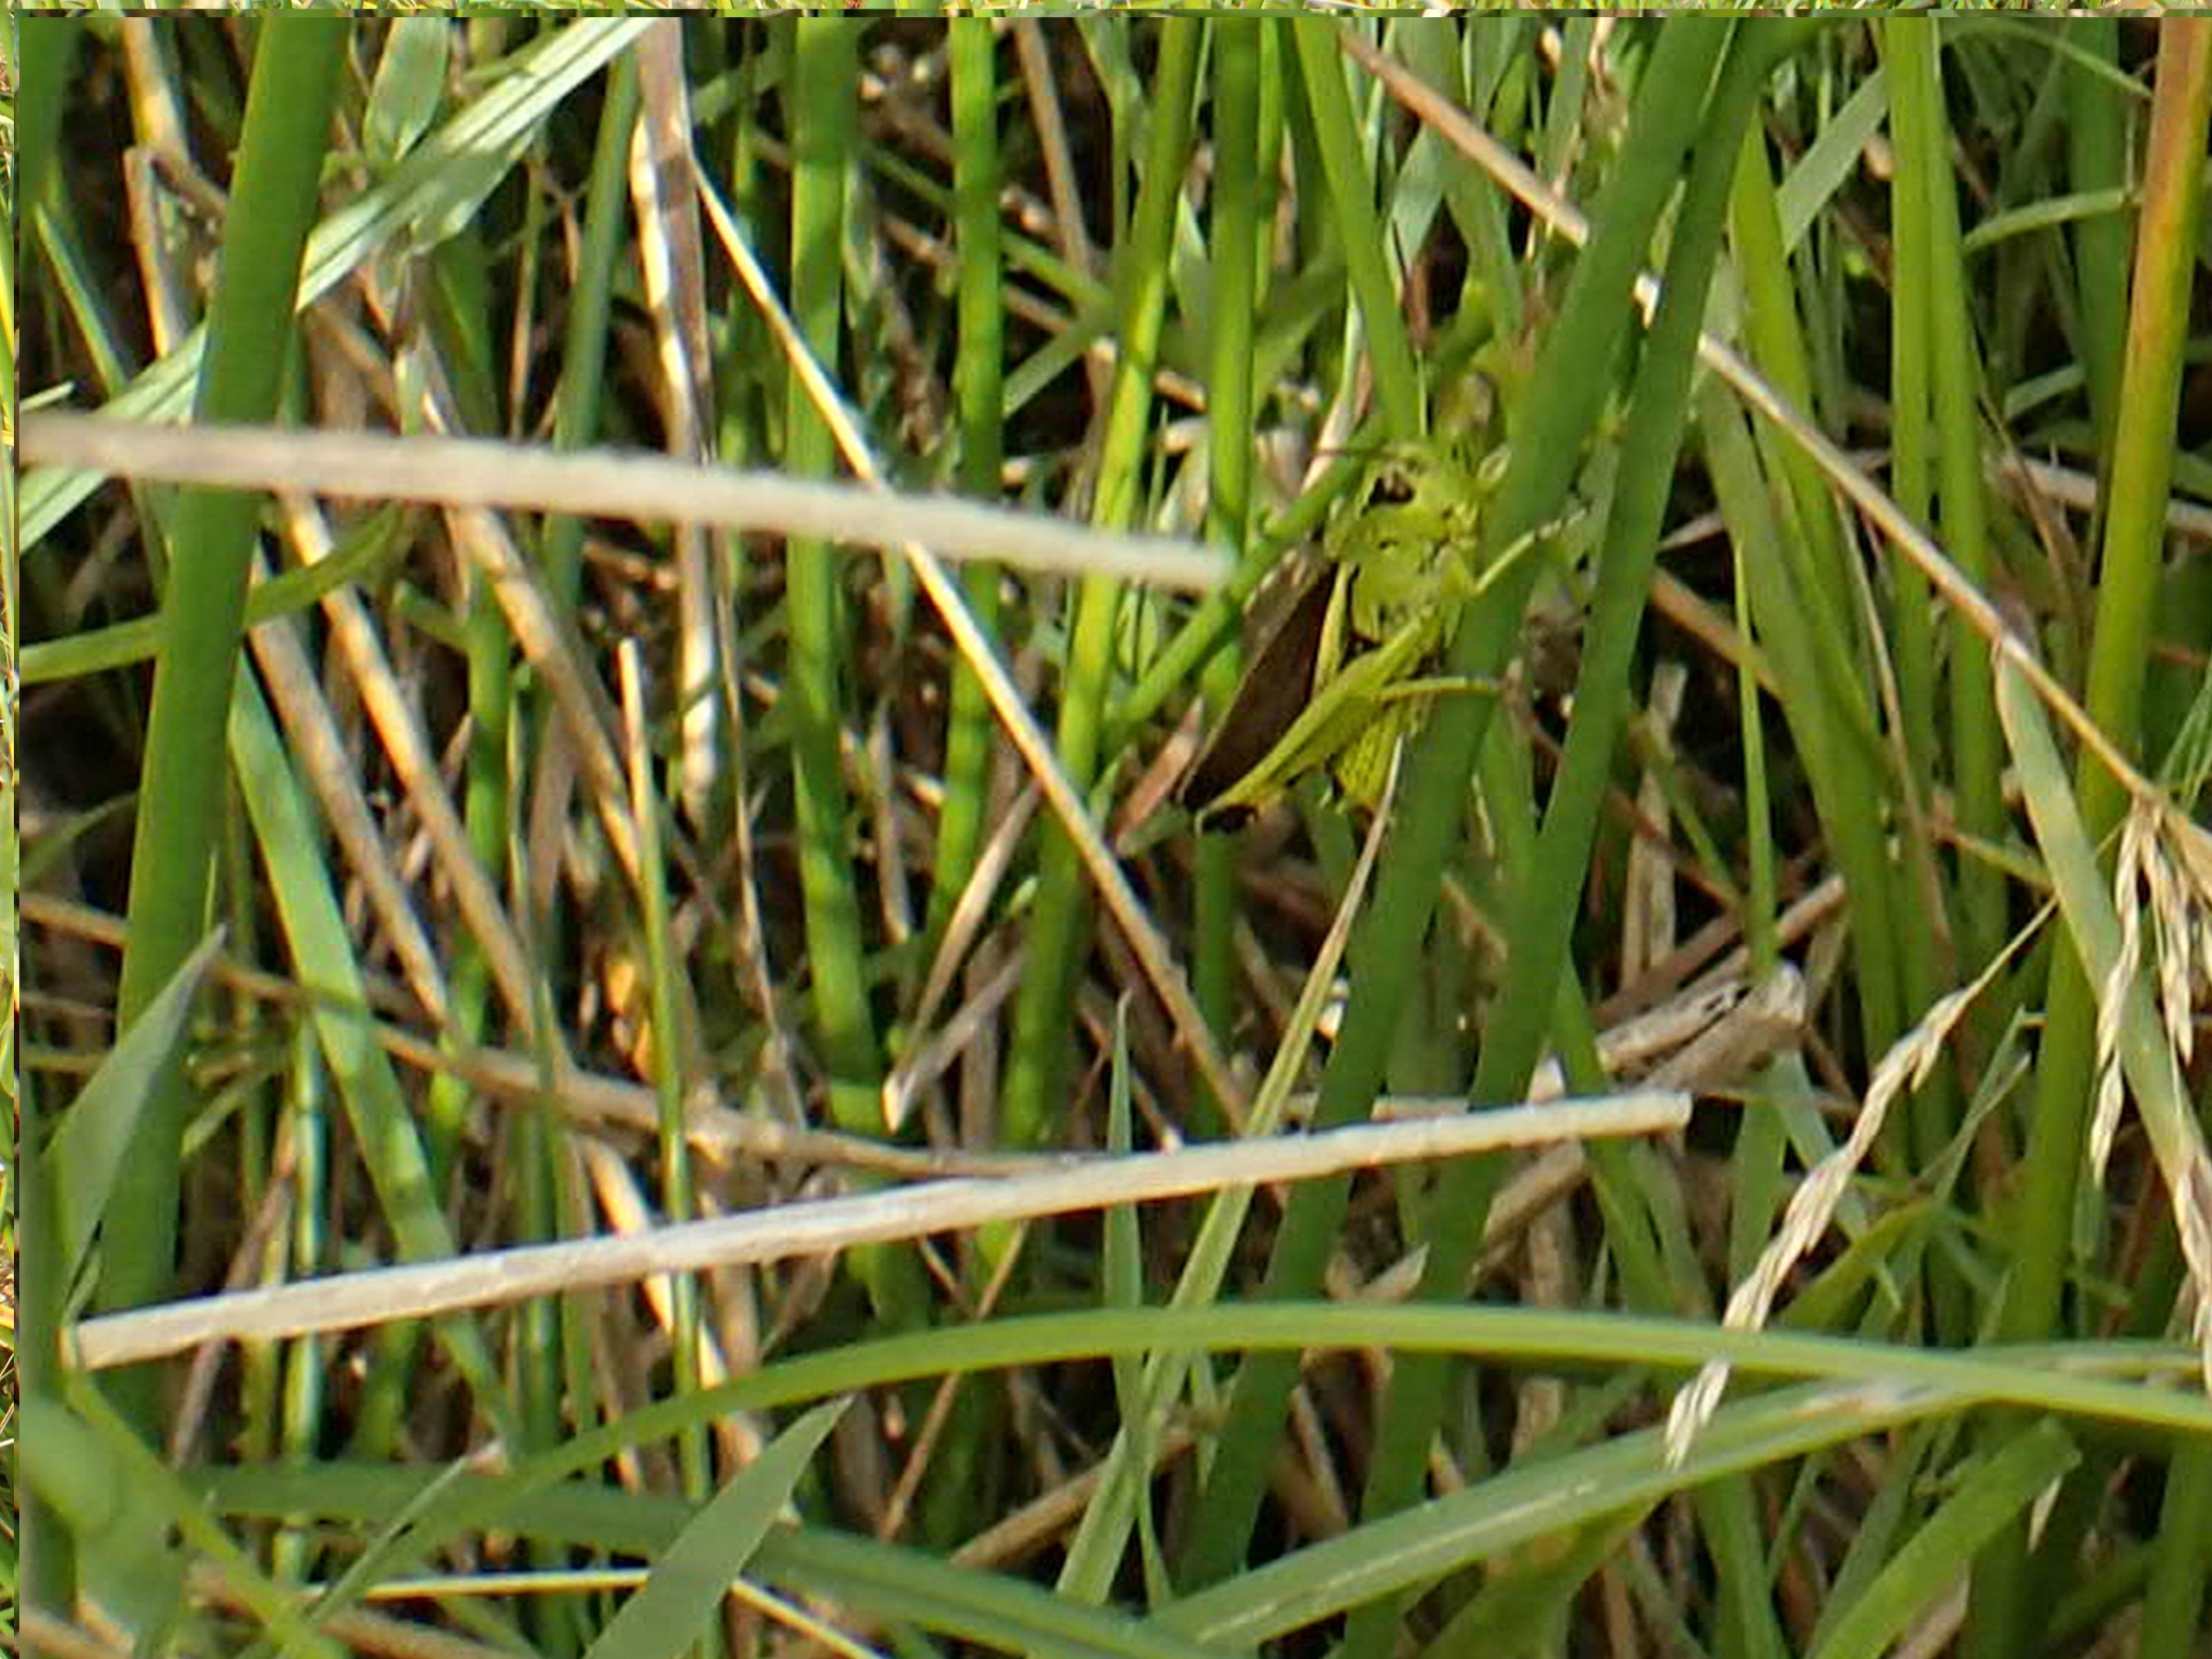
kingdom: Animalia
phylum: Arthropoda
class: Insecta
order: Orthoptera
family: Acrididae
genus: Stethophyma
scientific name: Stethophyma grossum
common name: Sumpgræshoppe
